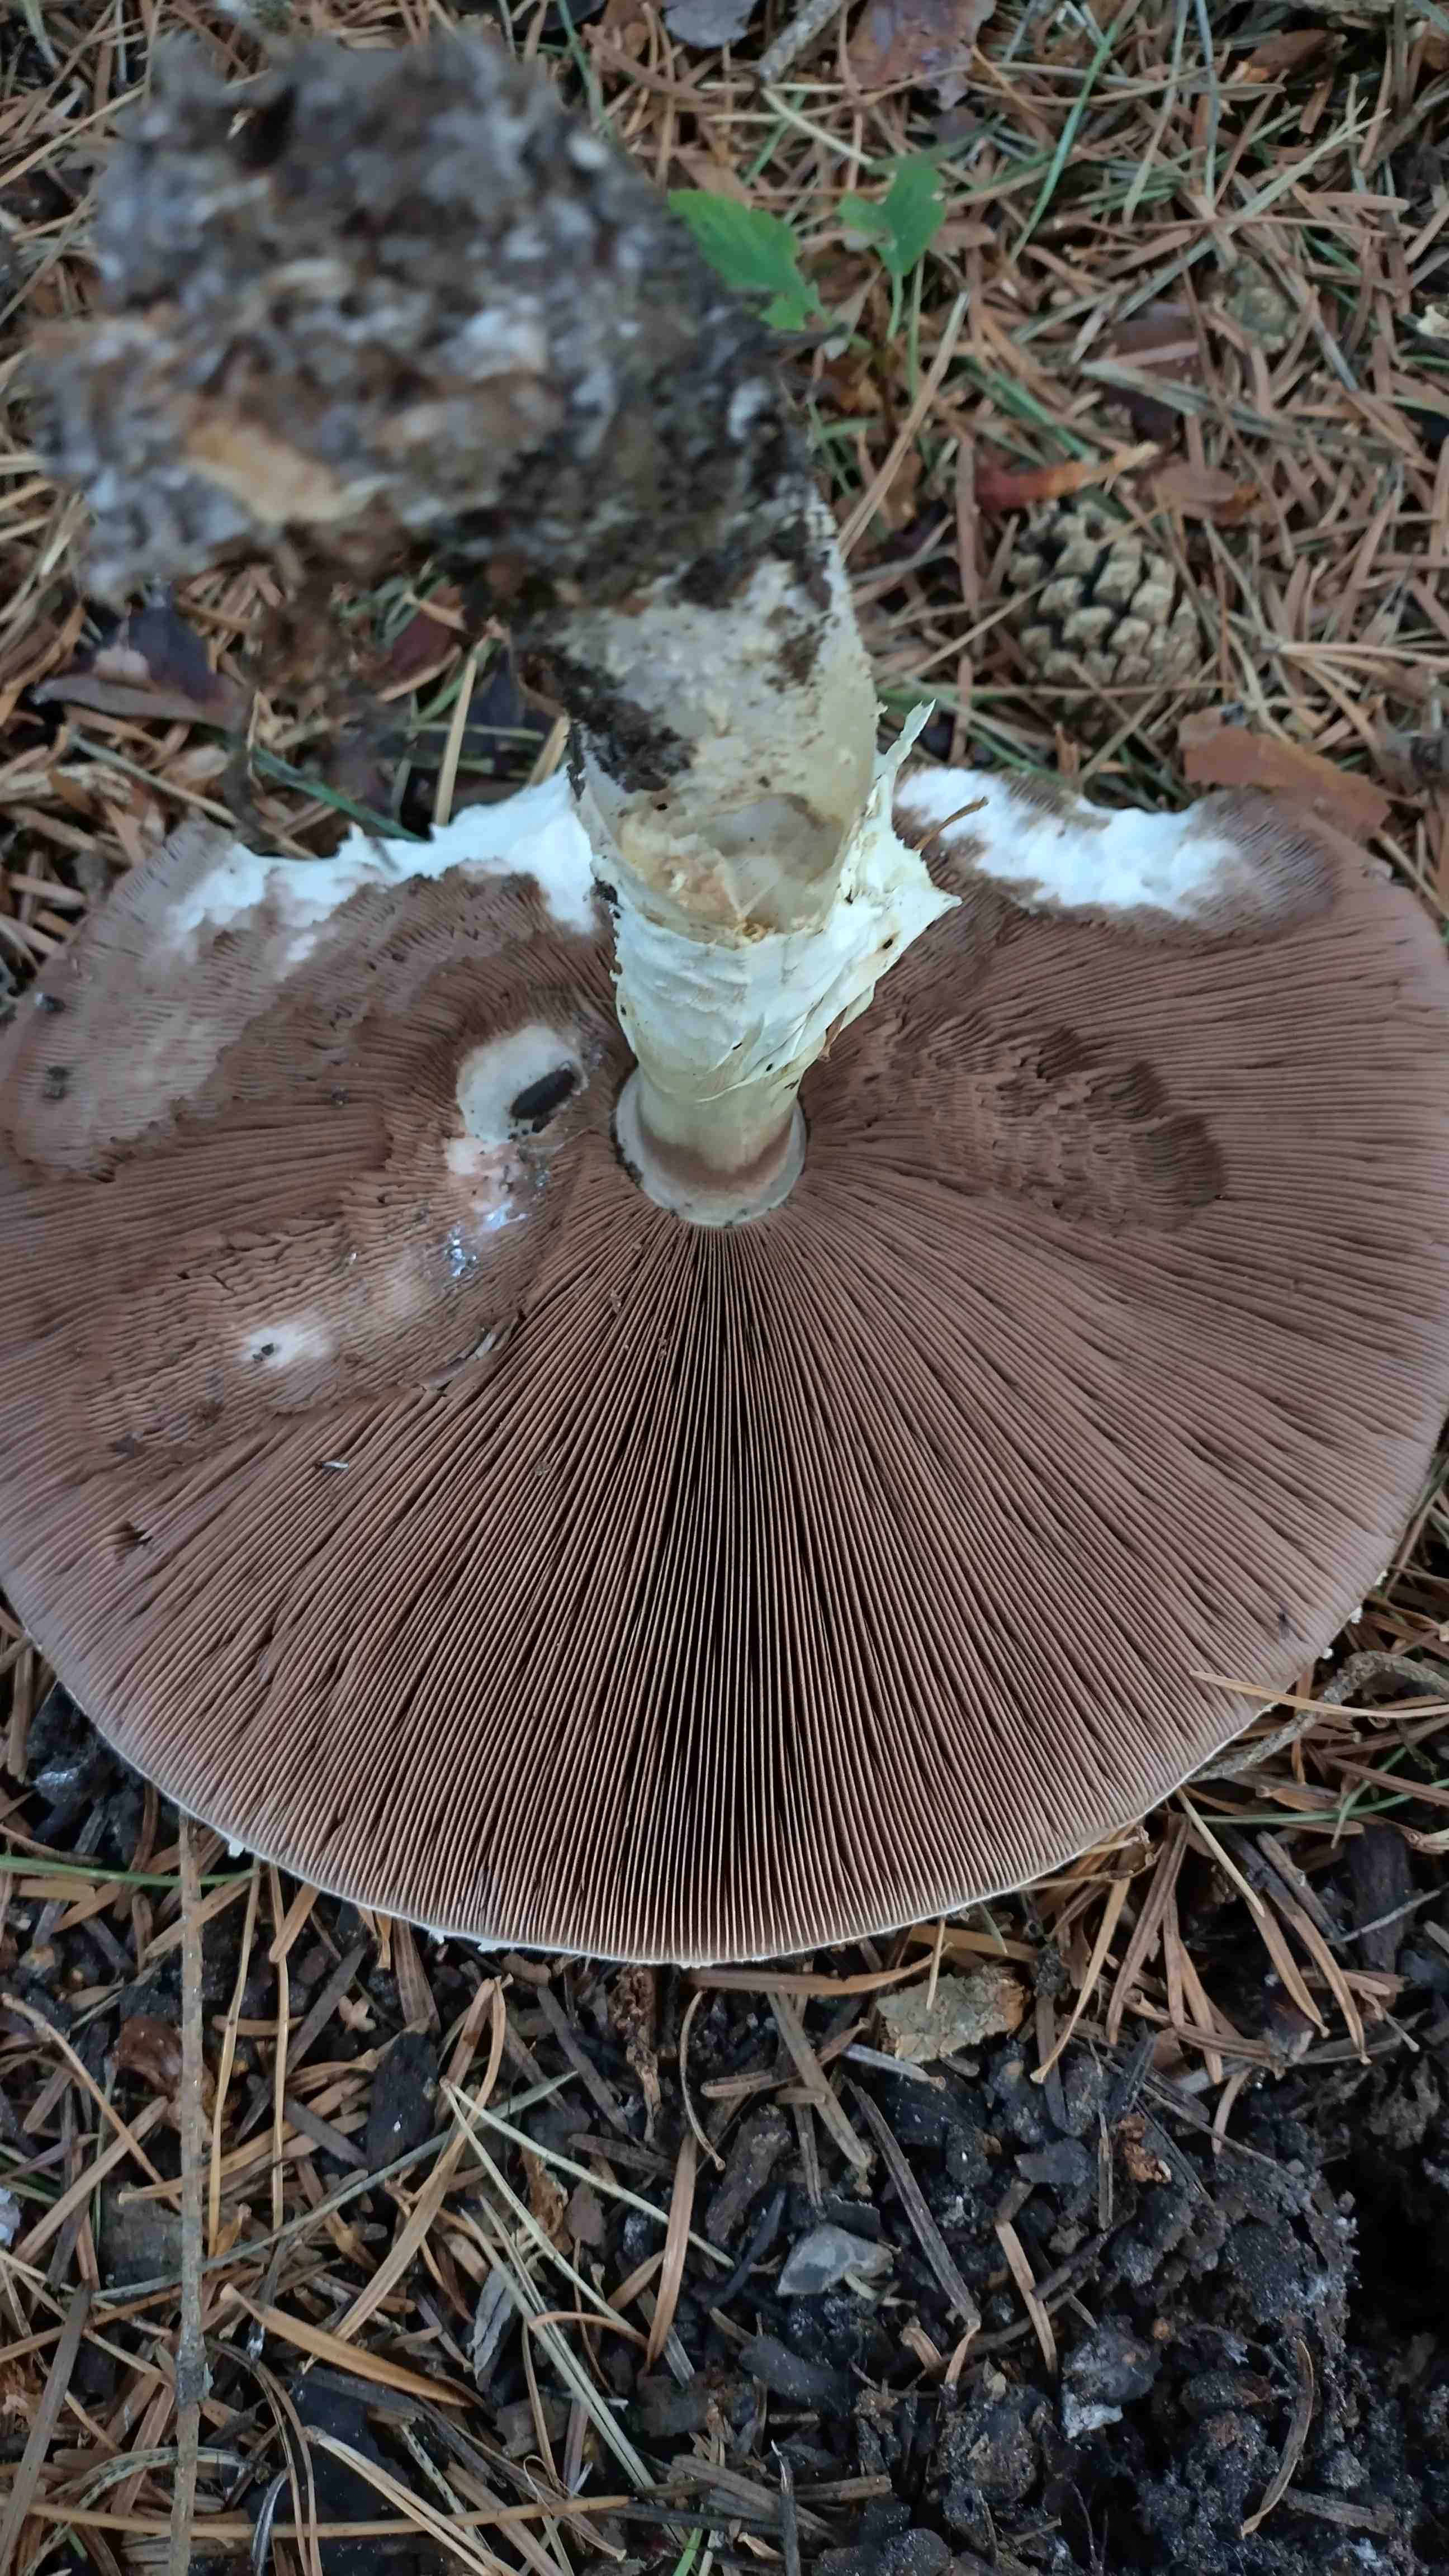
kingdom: Fungi
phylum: Basidiomycota
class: Agaricomycetes
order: Agaricales
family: Agaricaceae
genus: Agaricus
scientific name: Agaricus augustus
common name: prægtig champignon
